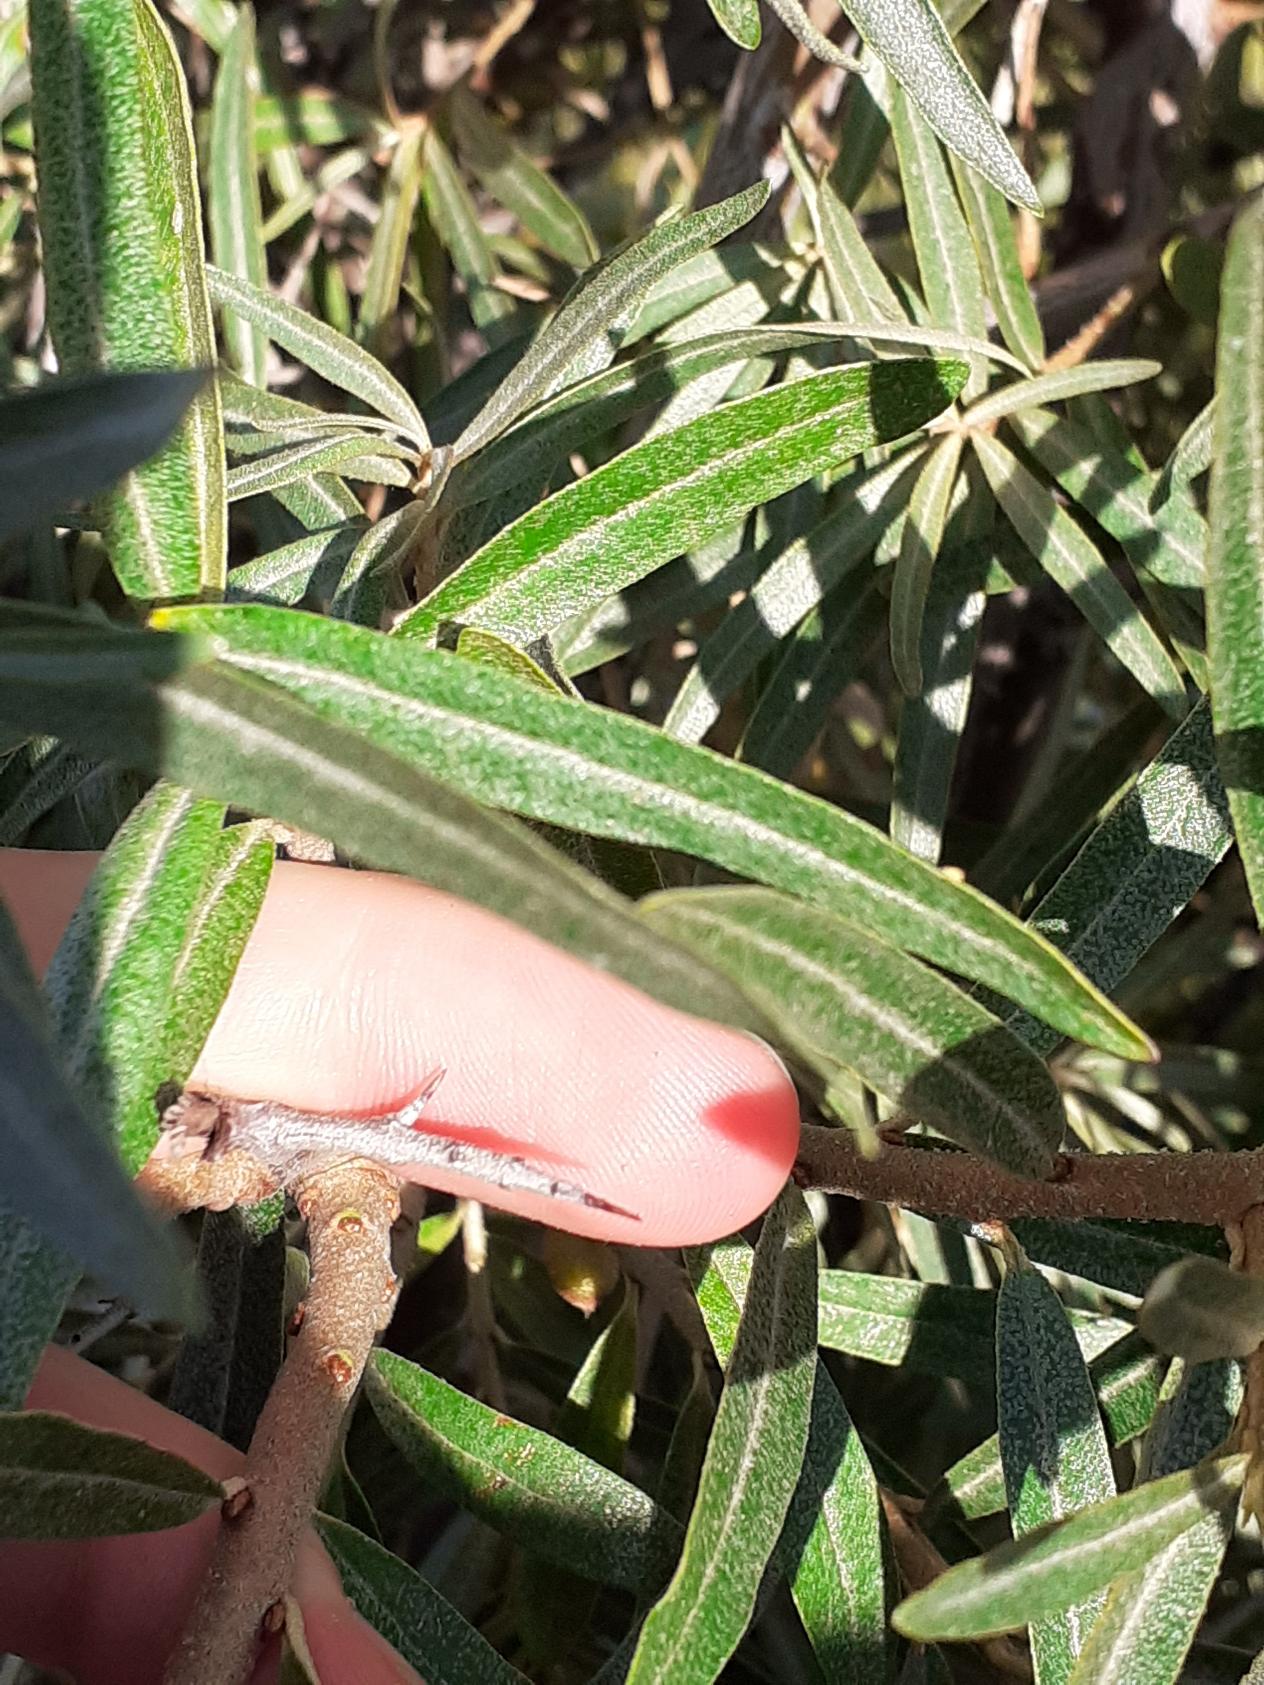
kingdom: Plantae
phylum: Tracheophyta
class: Magnoliopsida
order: Rosales
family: Elaeagnaceae
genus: Hippophae
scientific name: Hippophae rhamnoides
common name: Havtorn
